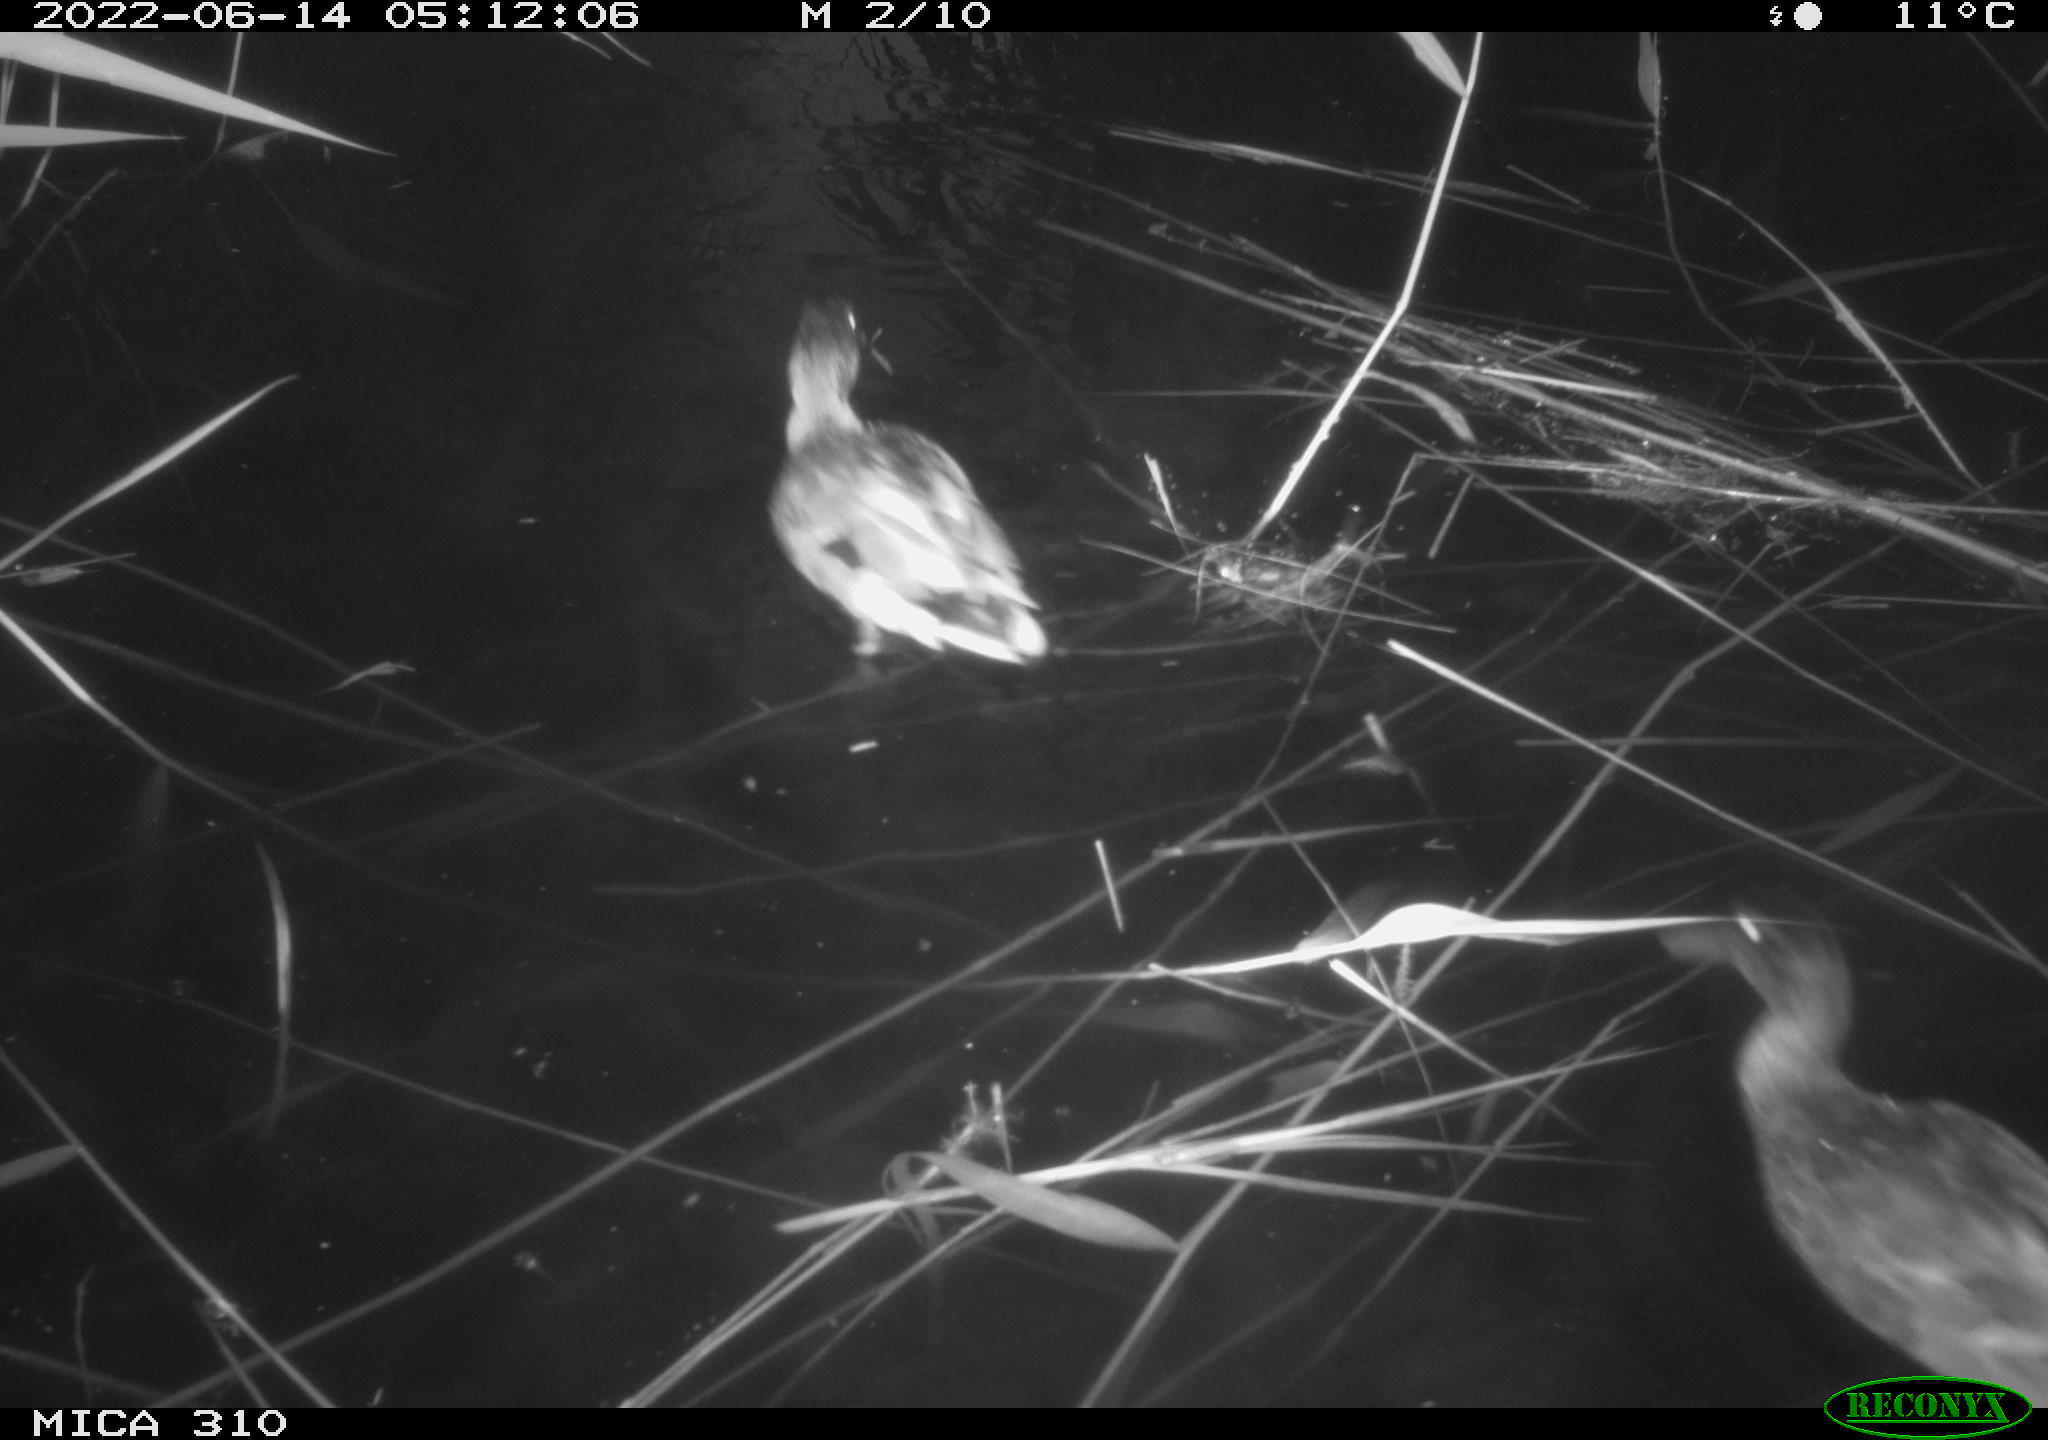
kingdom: Animalia
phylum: Chordata
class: Aves
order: Anseriformes
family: Anatidae
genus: Anas
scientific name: Anas platyrhynchos
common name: Mallard
